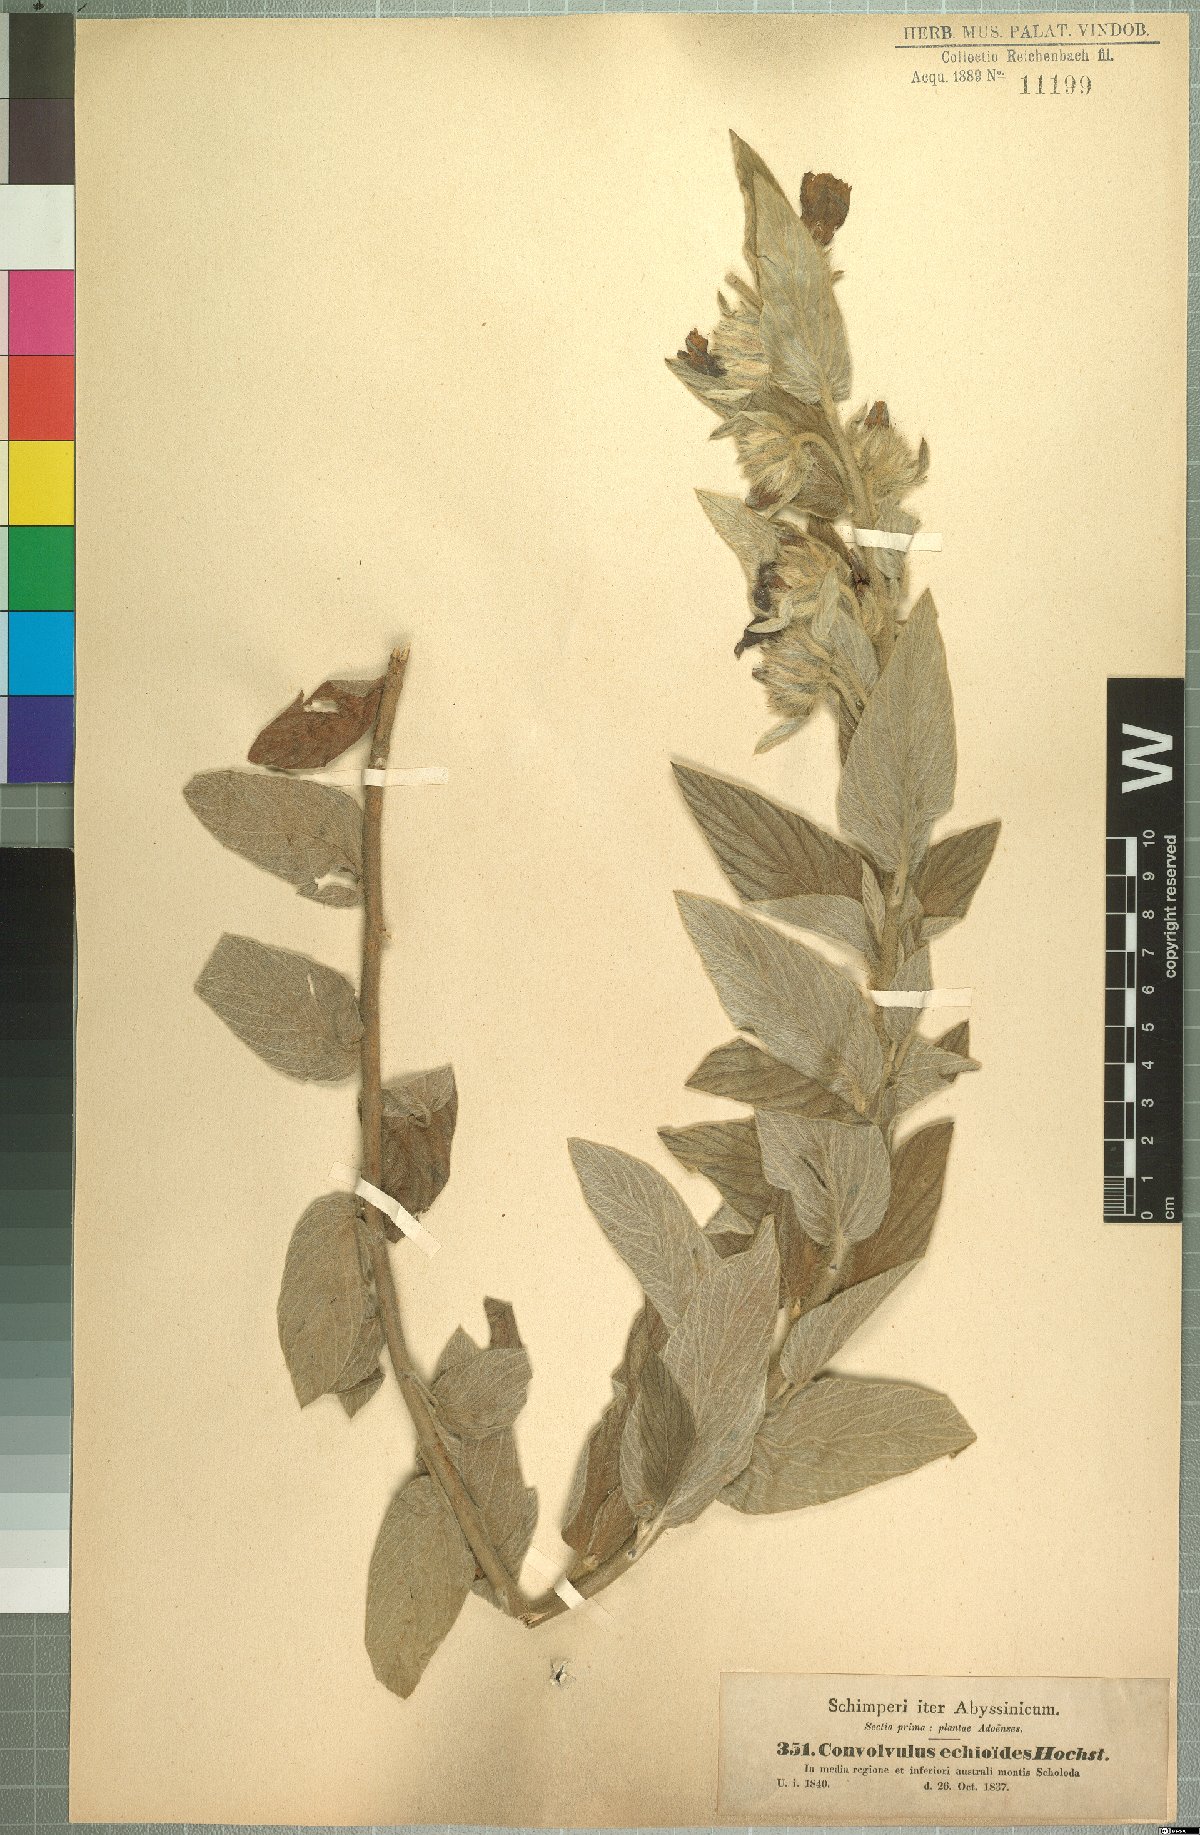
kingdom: Plantae
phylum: Tracheophyta
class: Magnoliopsida
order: Solanales
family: Convolvulaceae
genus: Ipomoea
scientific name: Ipomoea abyssinica
